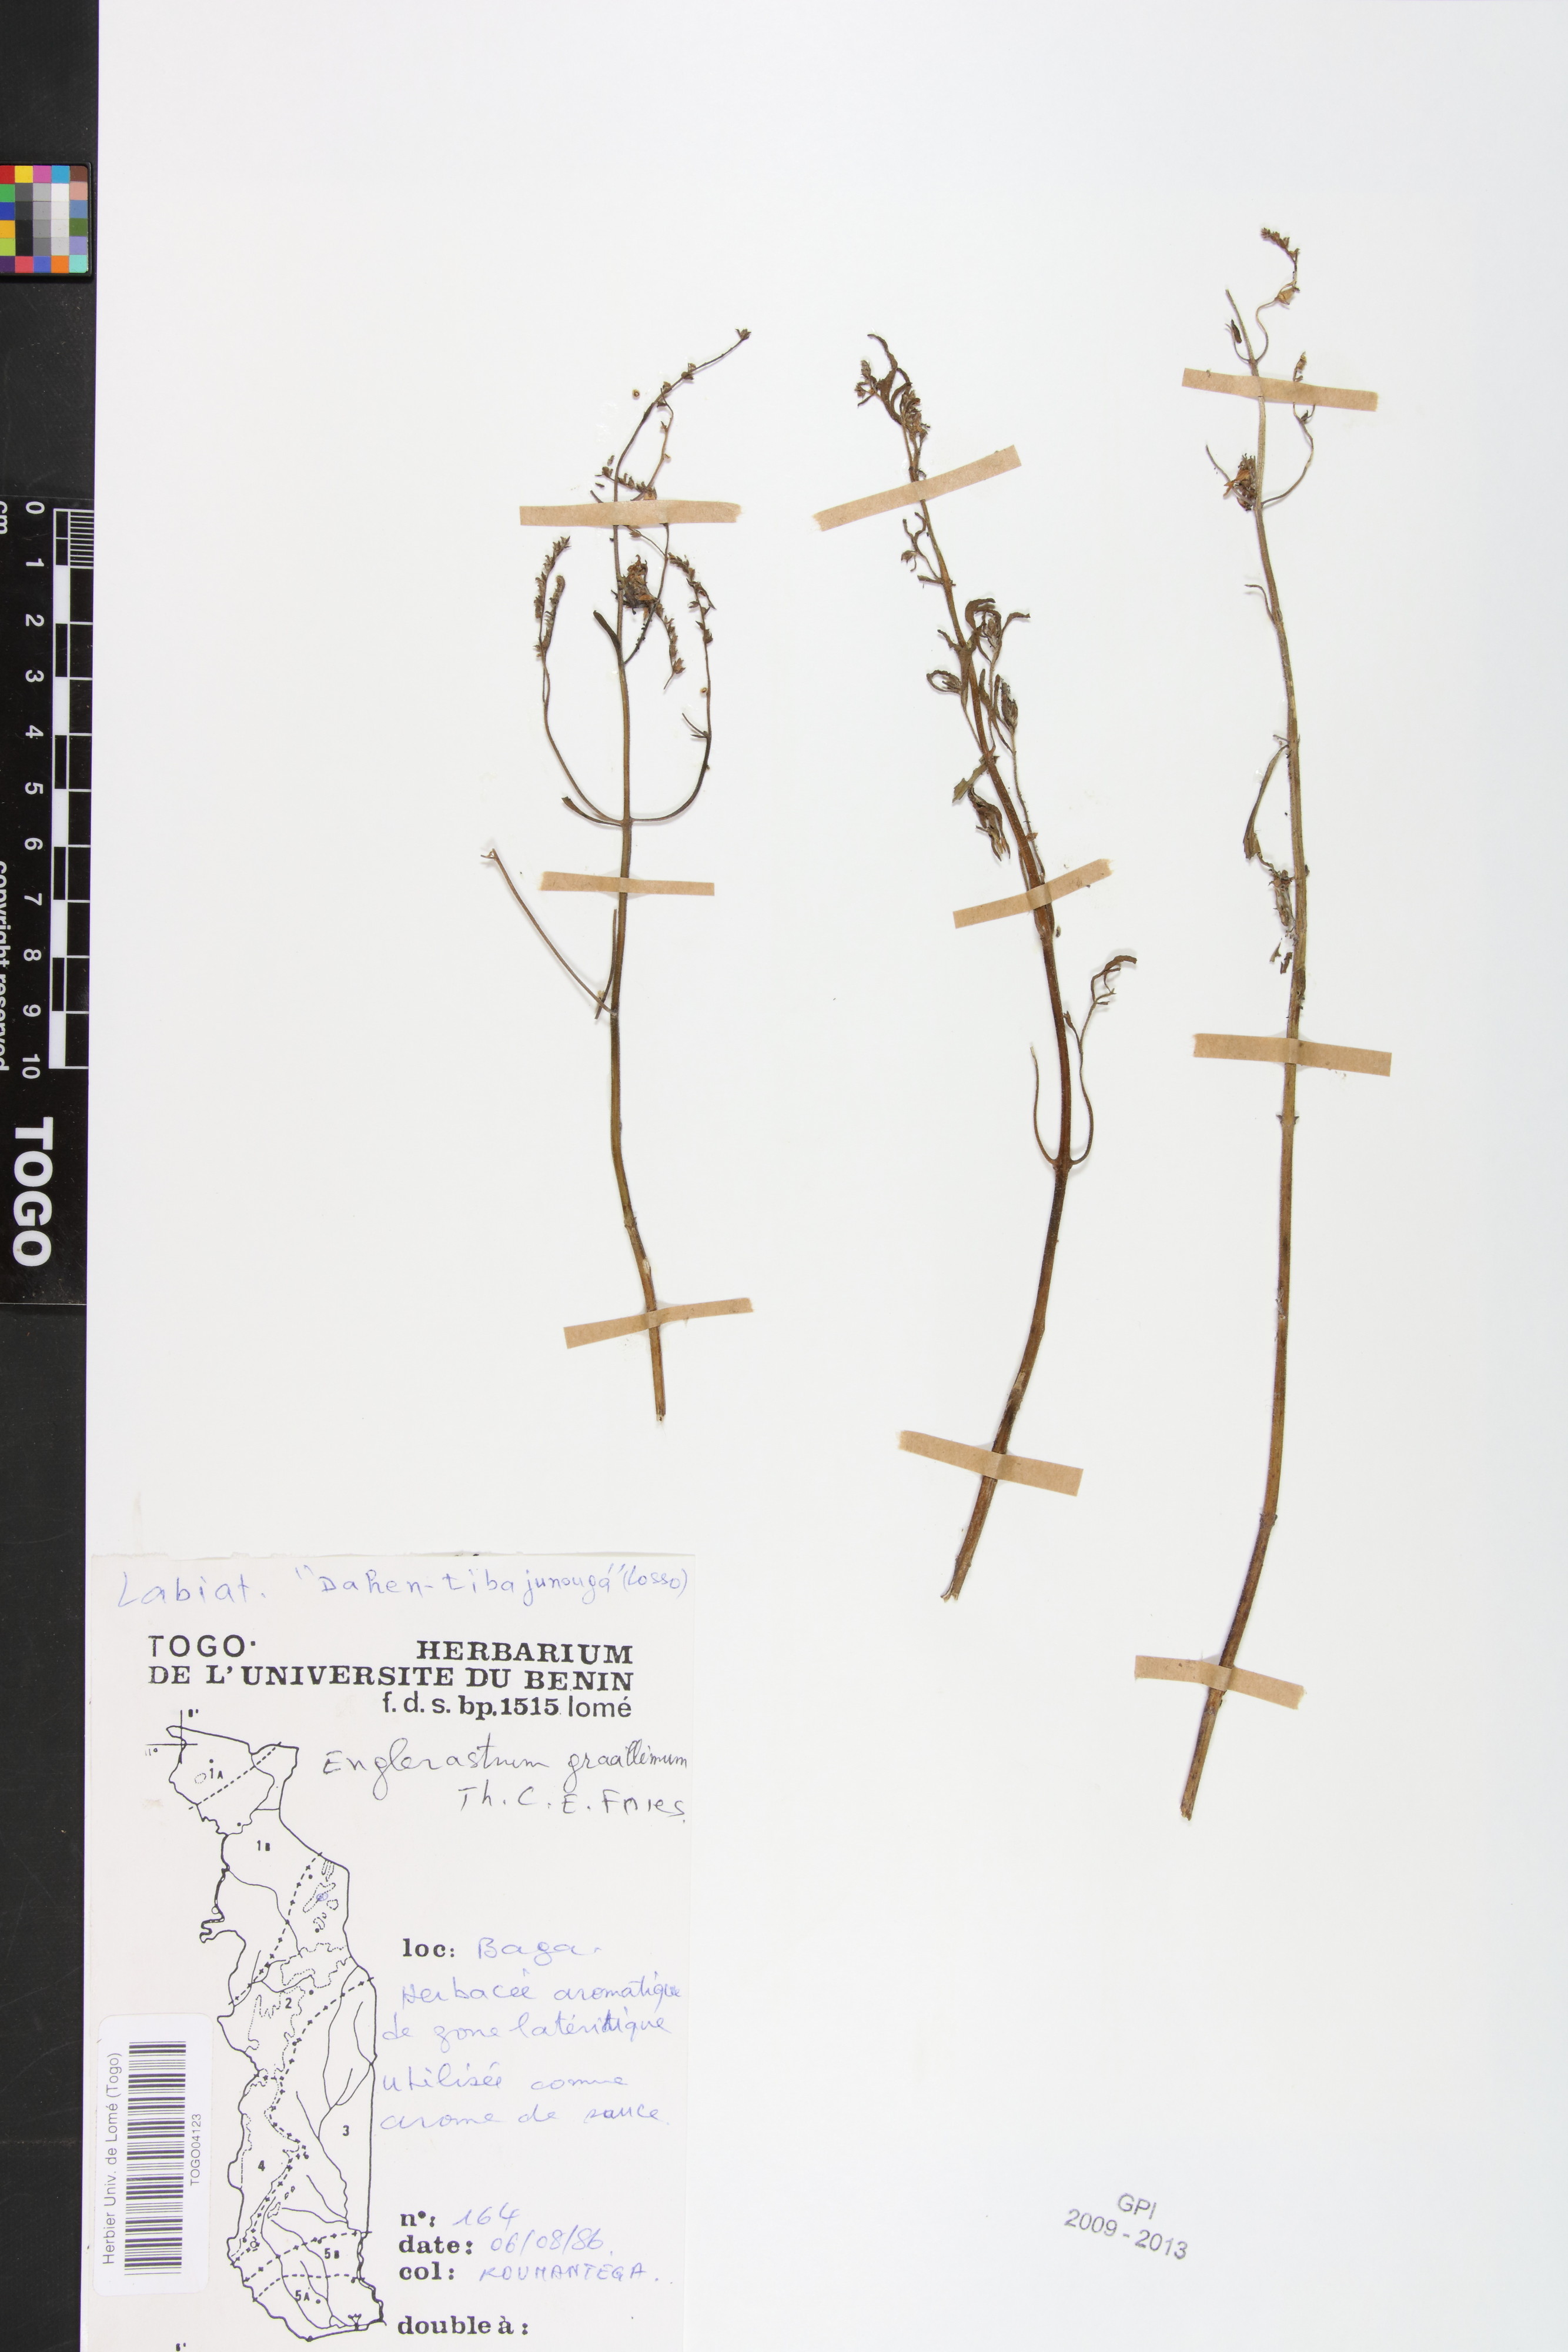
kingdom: Plantae
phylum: Tracheophyta
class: Magnoliopsida
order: Lamiales
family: Lamiaceae
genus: Coleus
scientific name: Coleus gracillimus
